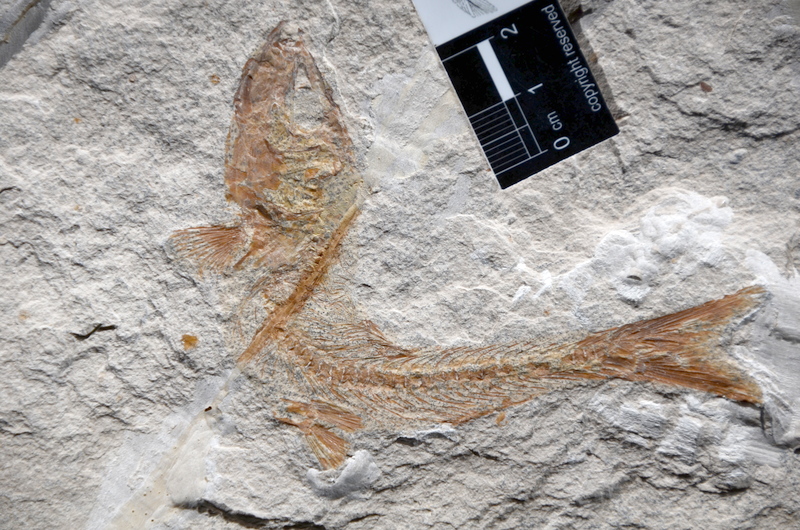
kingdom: Animalia
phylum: Chordata
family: Ascalaboidae
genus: Tharsis
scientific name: Tharsis dubius
